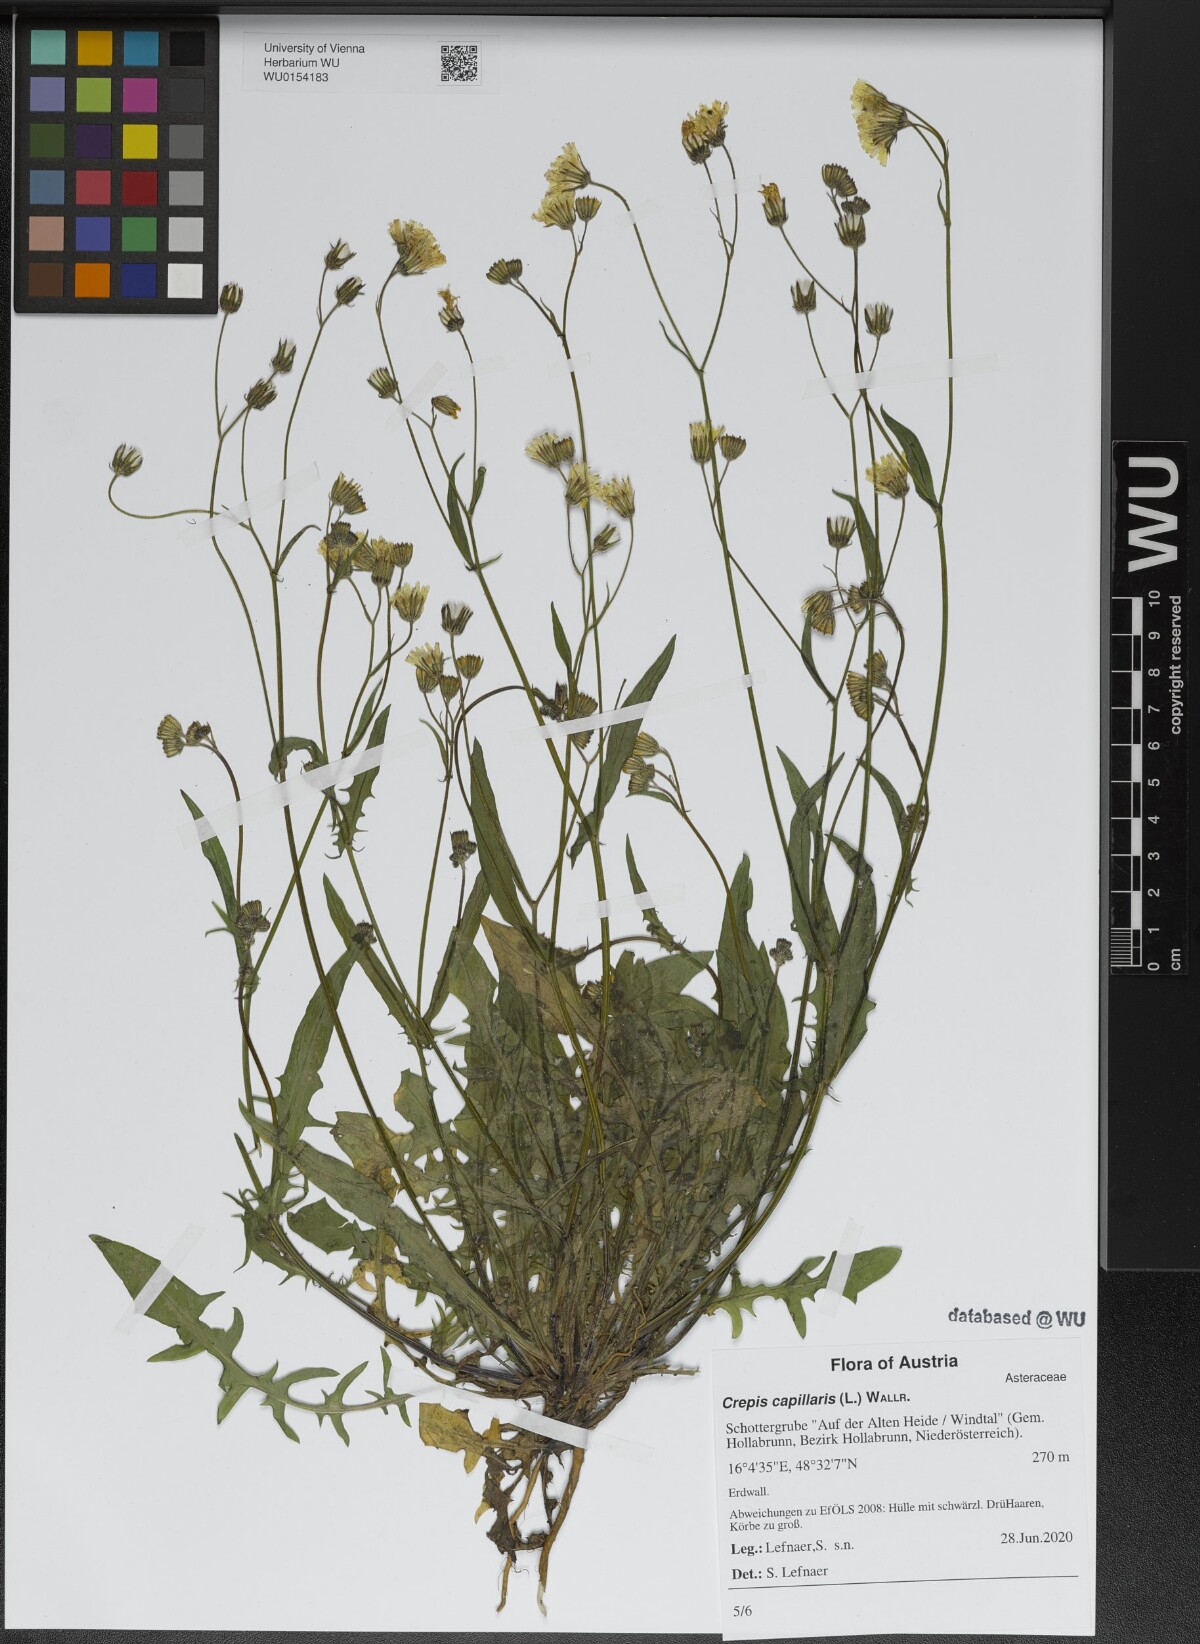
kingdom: Plantae
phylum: Tracheophyta
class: Magnoliopsida
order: Asterales
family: Asteraceae
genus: Crepis
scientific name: Crepis capillaris
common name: Smooth hawksbeard
